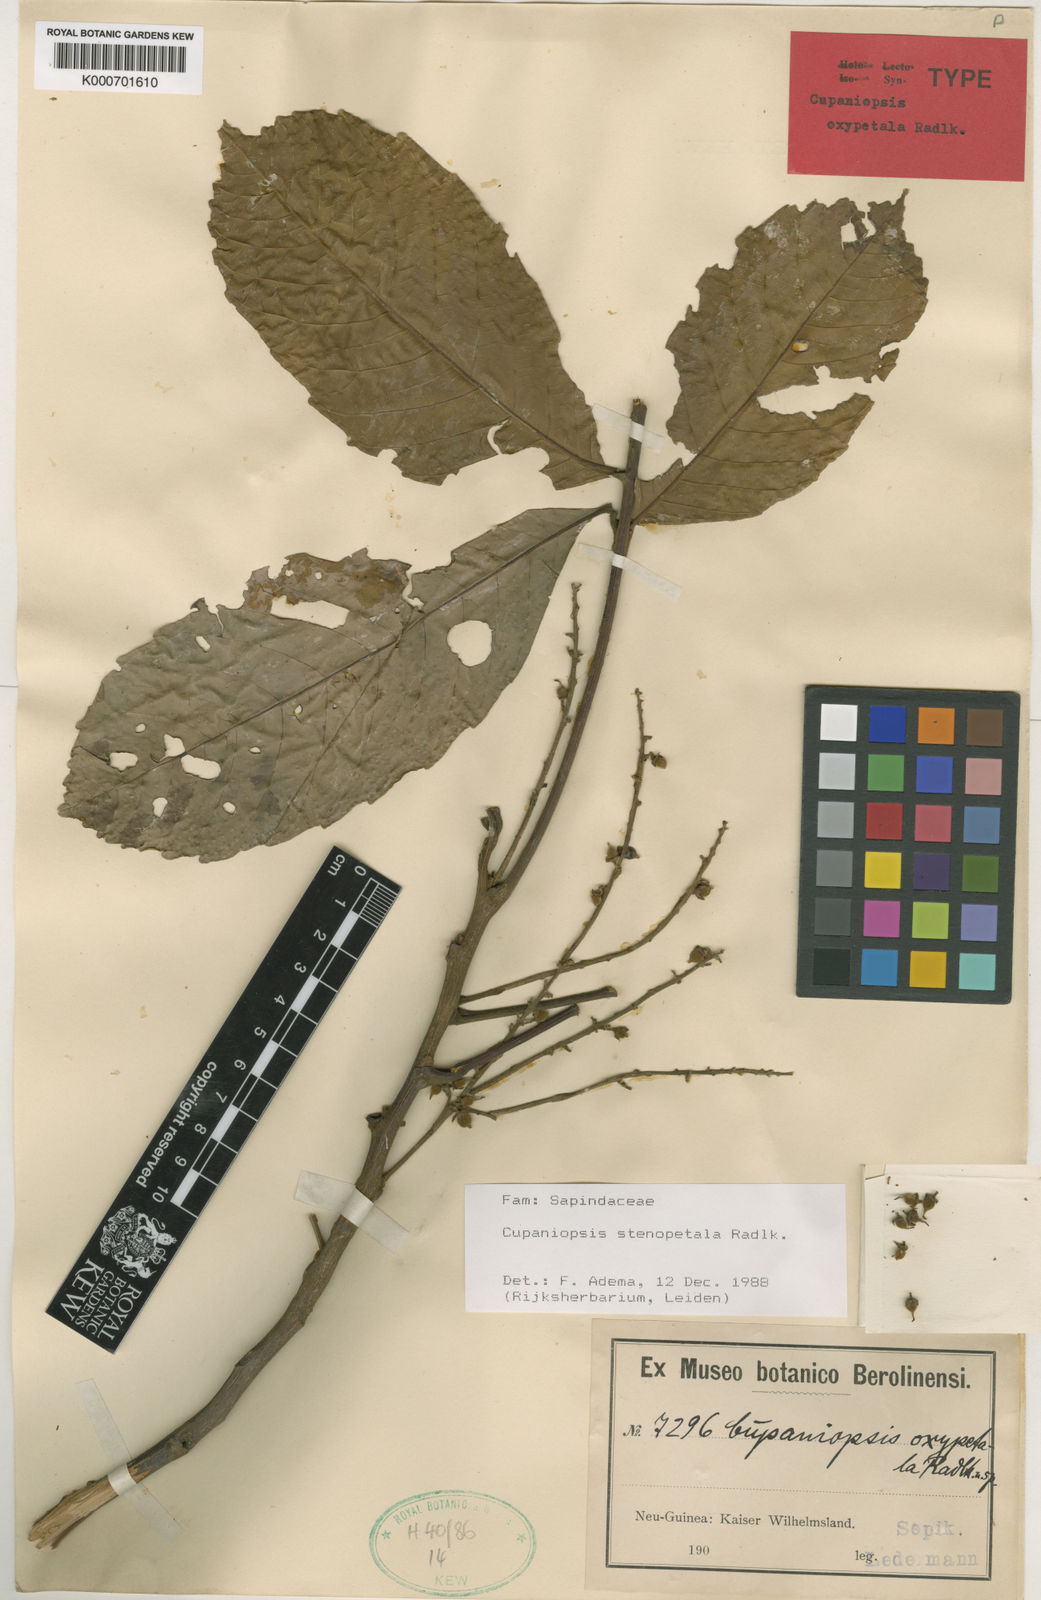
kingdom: Plantae
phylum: Tracheophyta
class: Magnoliopsida
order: Sapindales
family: Sapindaceae
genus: Cupaniopsis
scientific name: Cupaniopsis stenopetala
